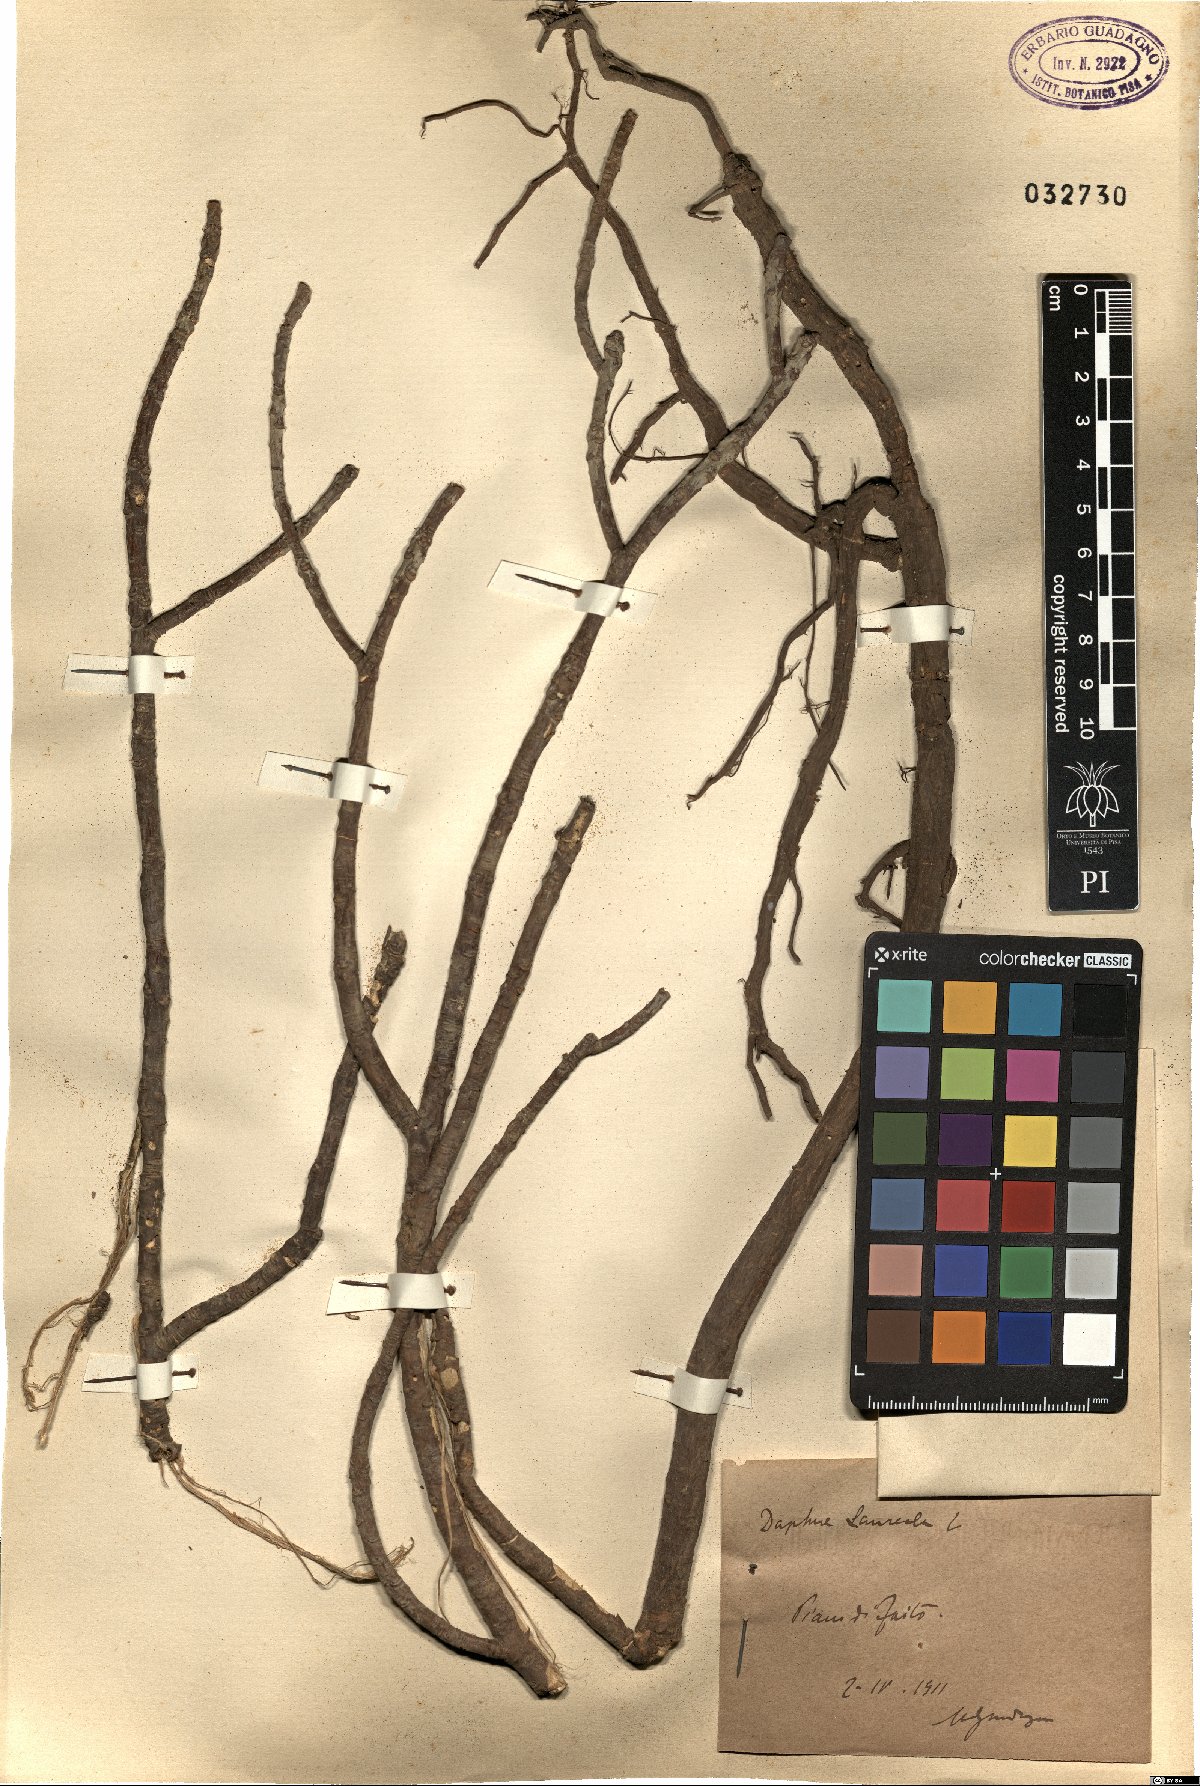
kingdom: Plantae
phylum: Tracheophyta
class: Magnoliopsida
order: Malvales
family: Thymelaeaceae
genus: Daphne
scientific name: Daphne laureola
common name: Spurge-laurel
